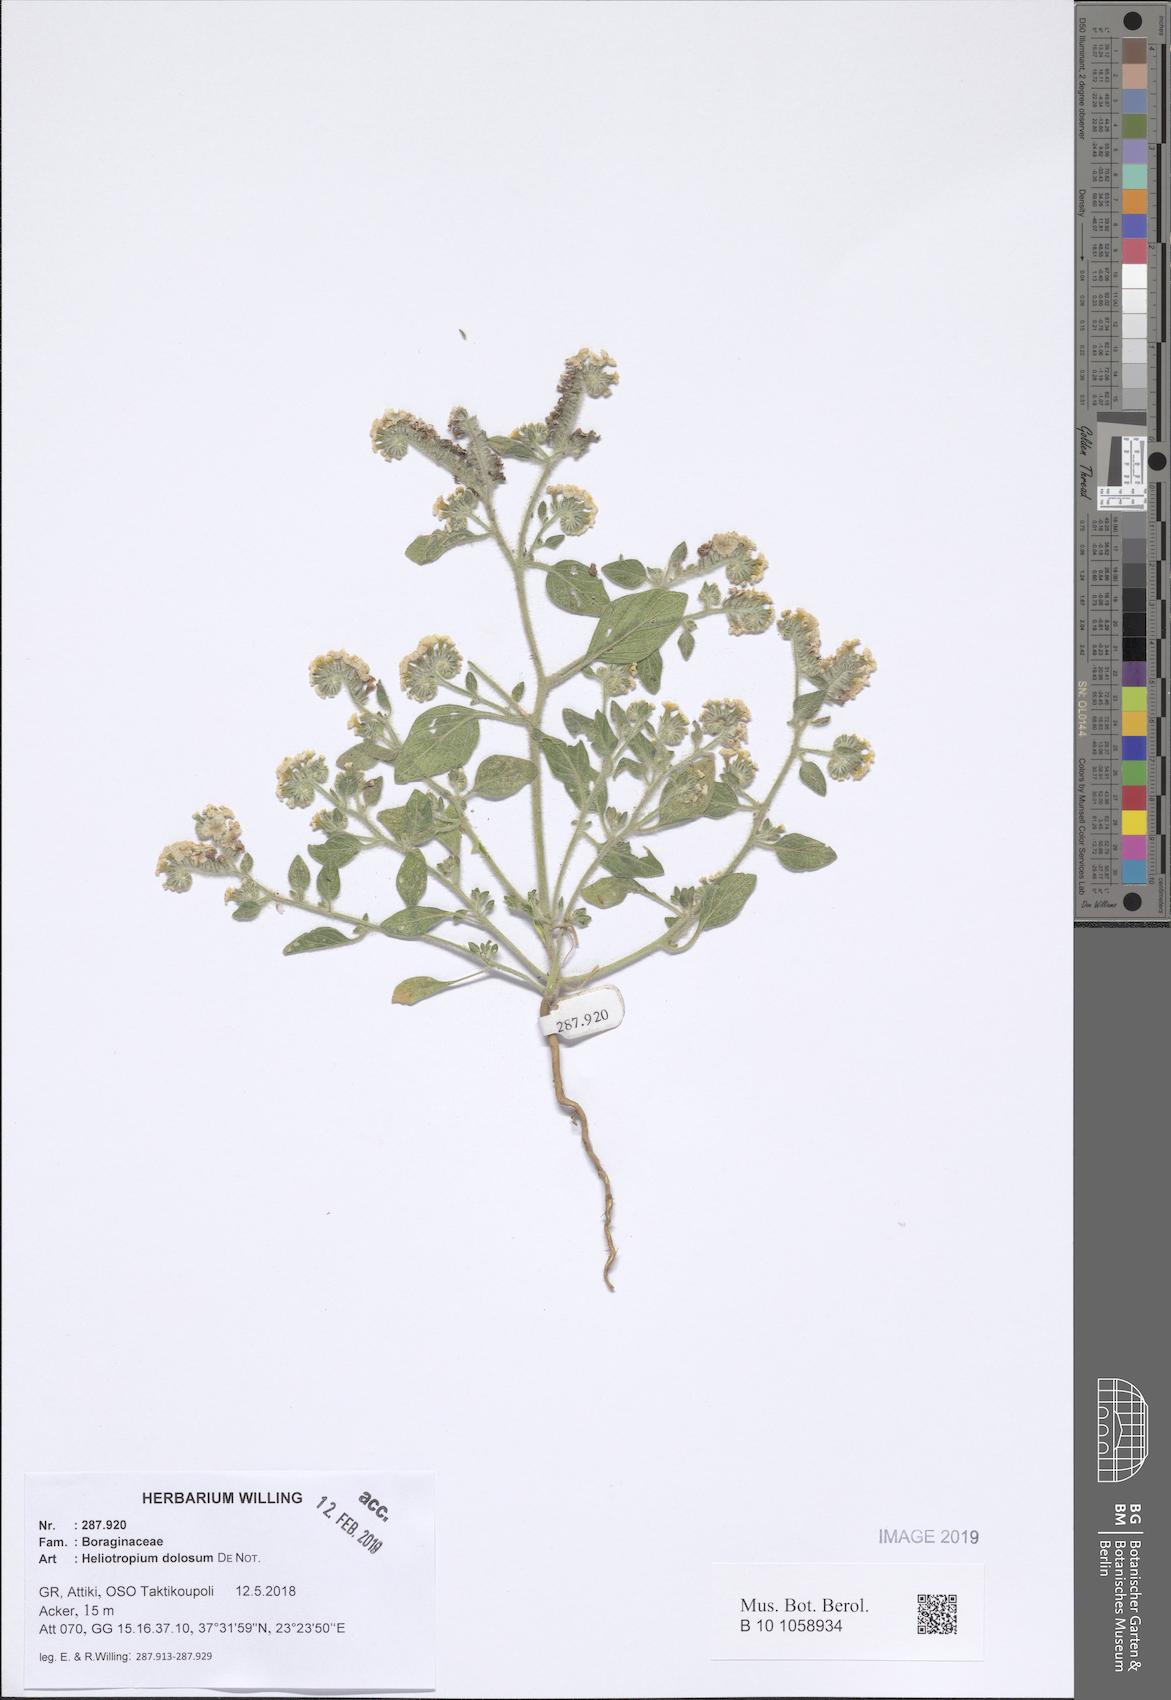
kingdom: Plantae
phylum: Tracheophyta
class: Magnoliopsida
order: Boraginales
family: Heliotropiaceae
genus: Heliotropium
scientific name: Heliotropium dolosum
